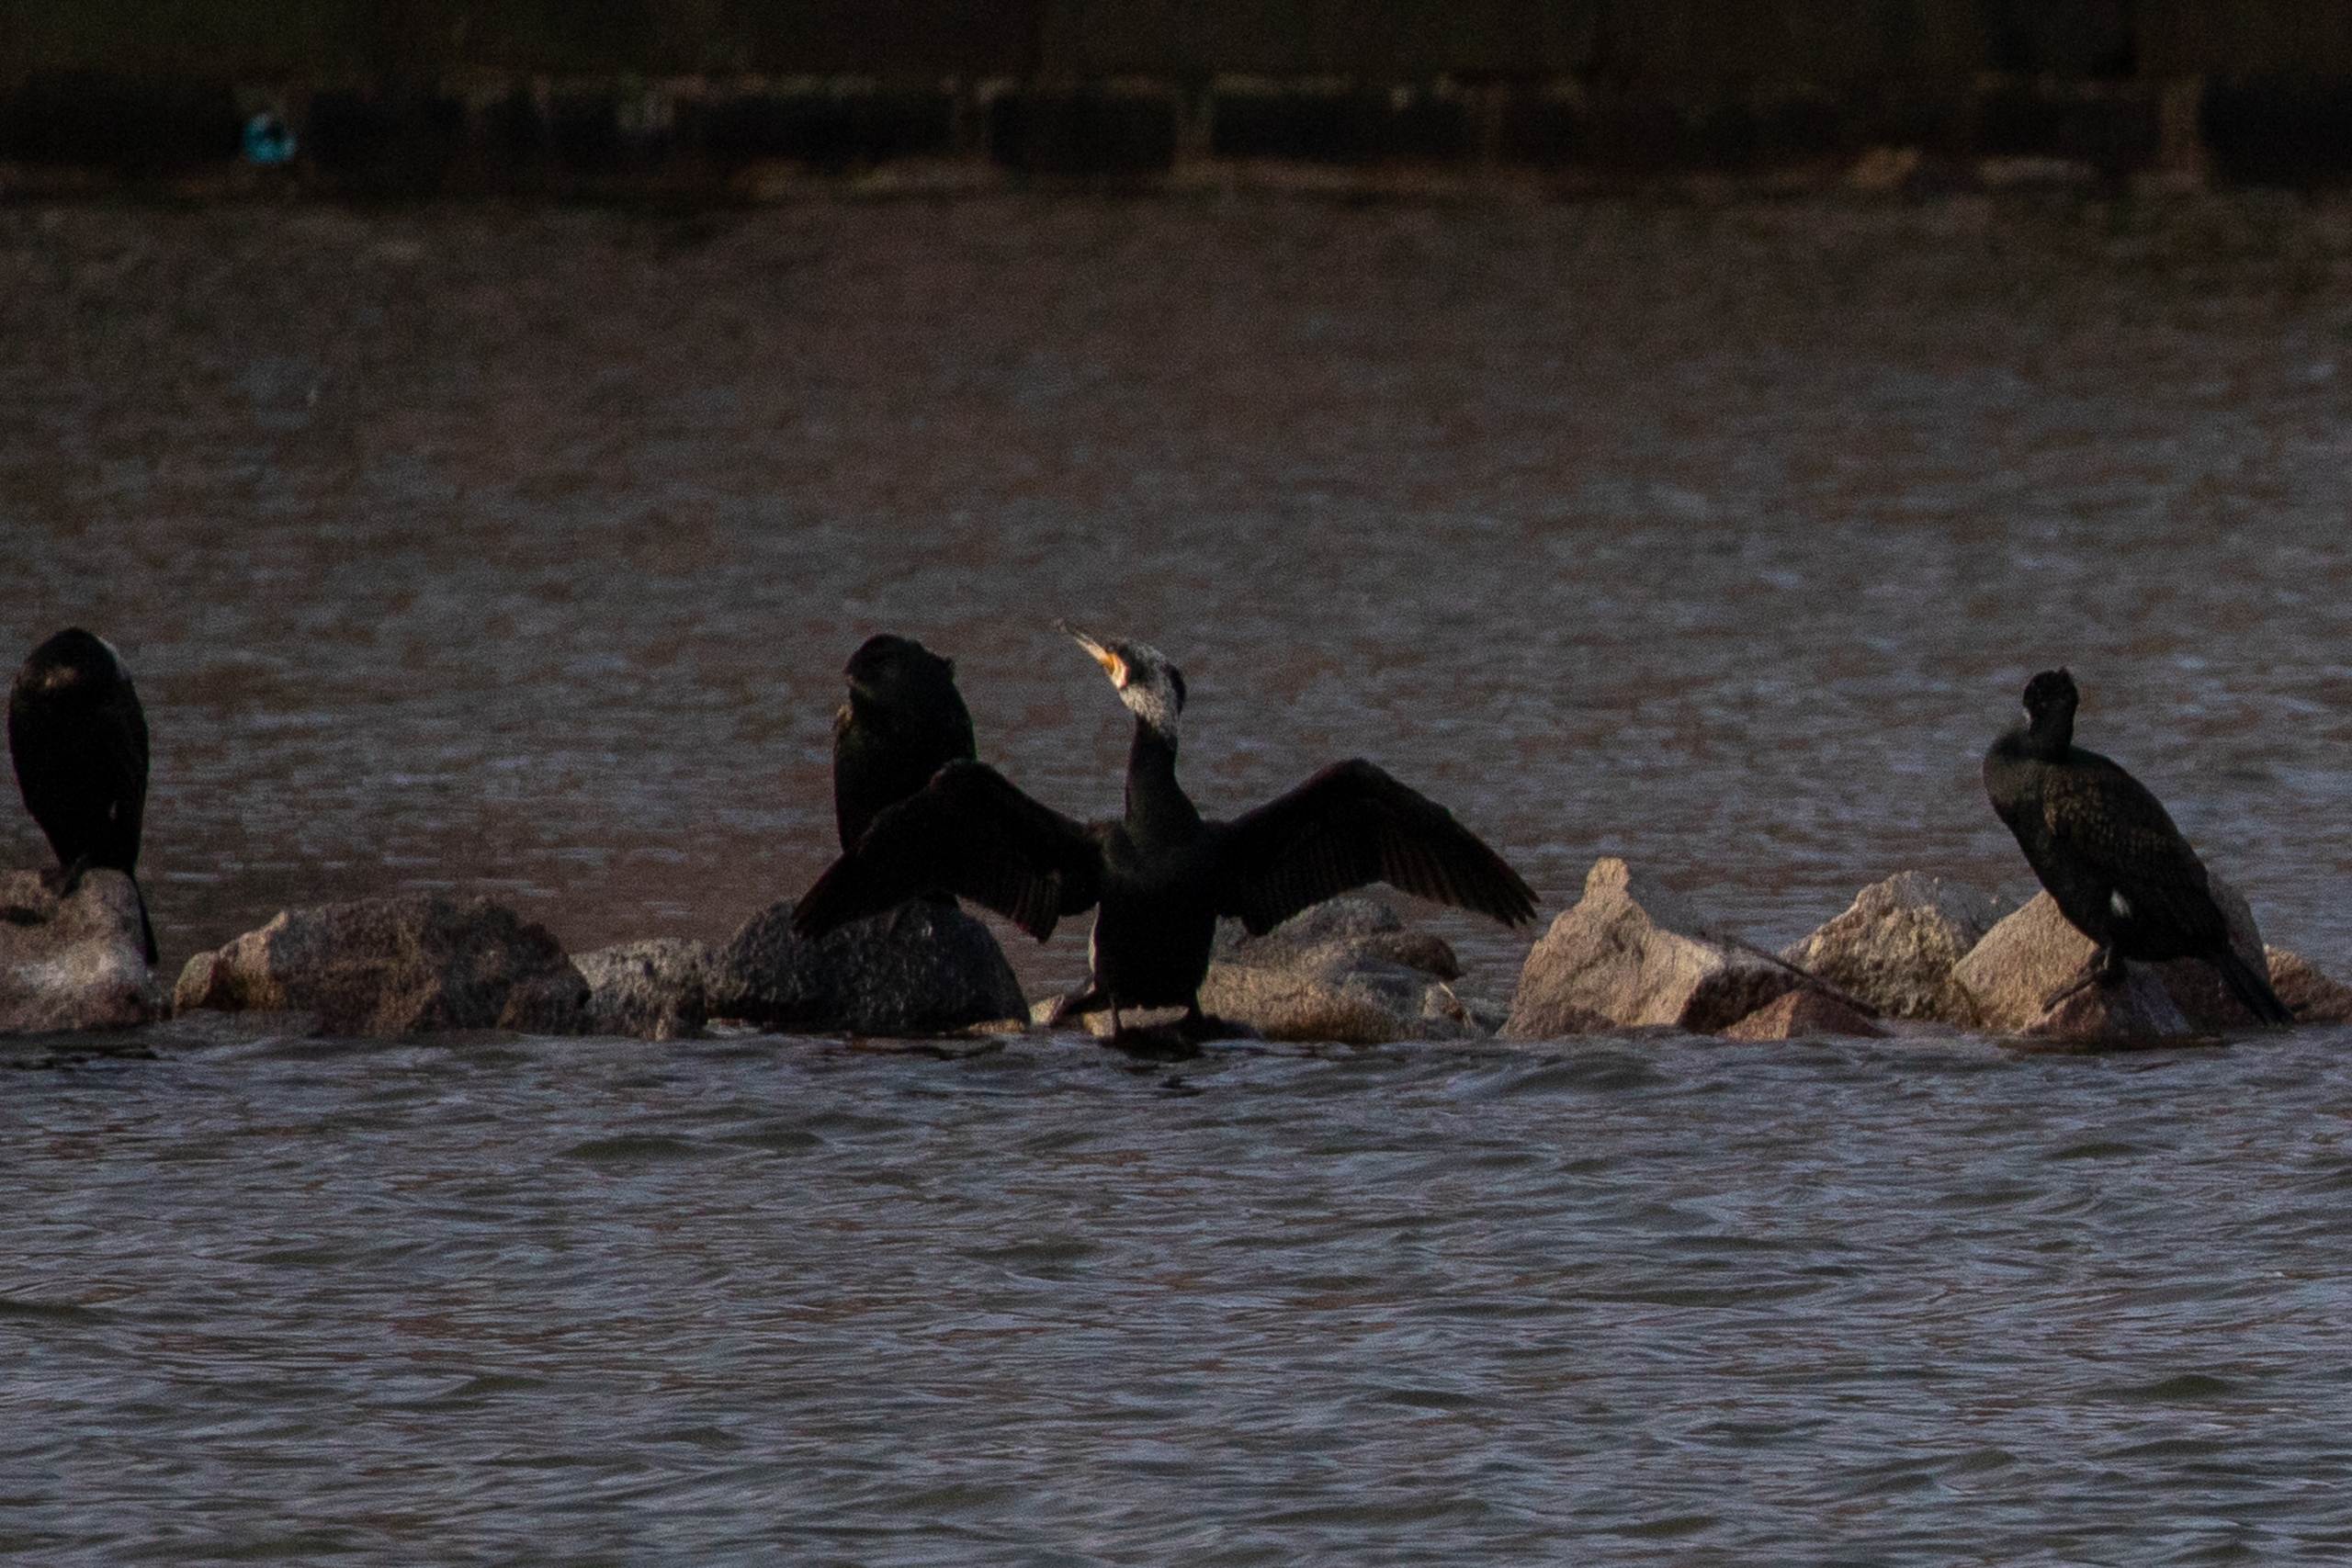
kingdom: Animalia
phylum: Chordata
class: Aves
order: Suliformes
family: Phalacrocoracidae
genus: Phalacrocorax
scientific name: Phalacrocorax carbo
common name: Skarv
